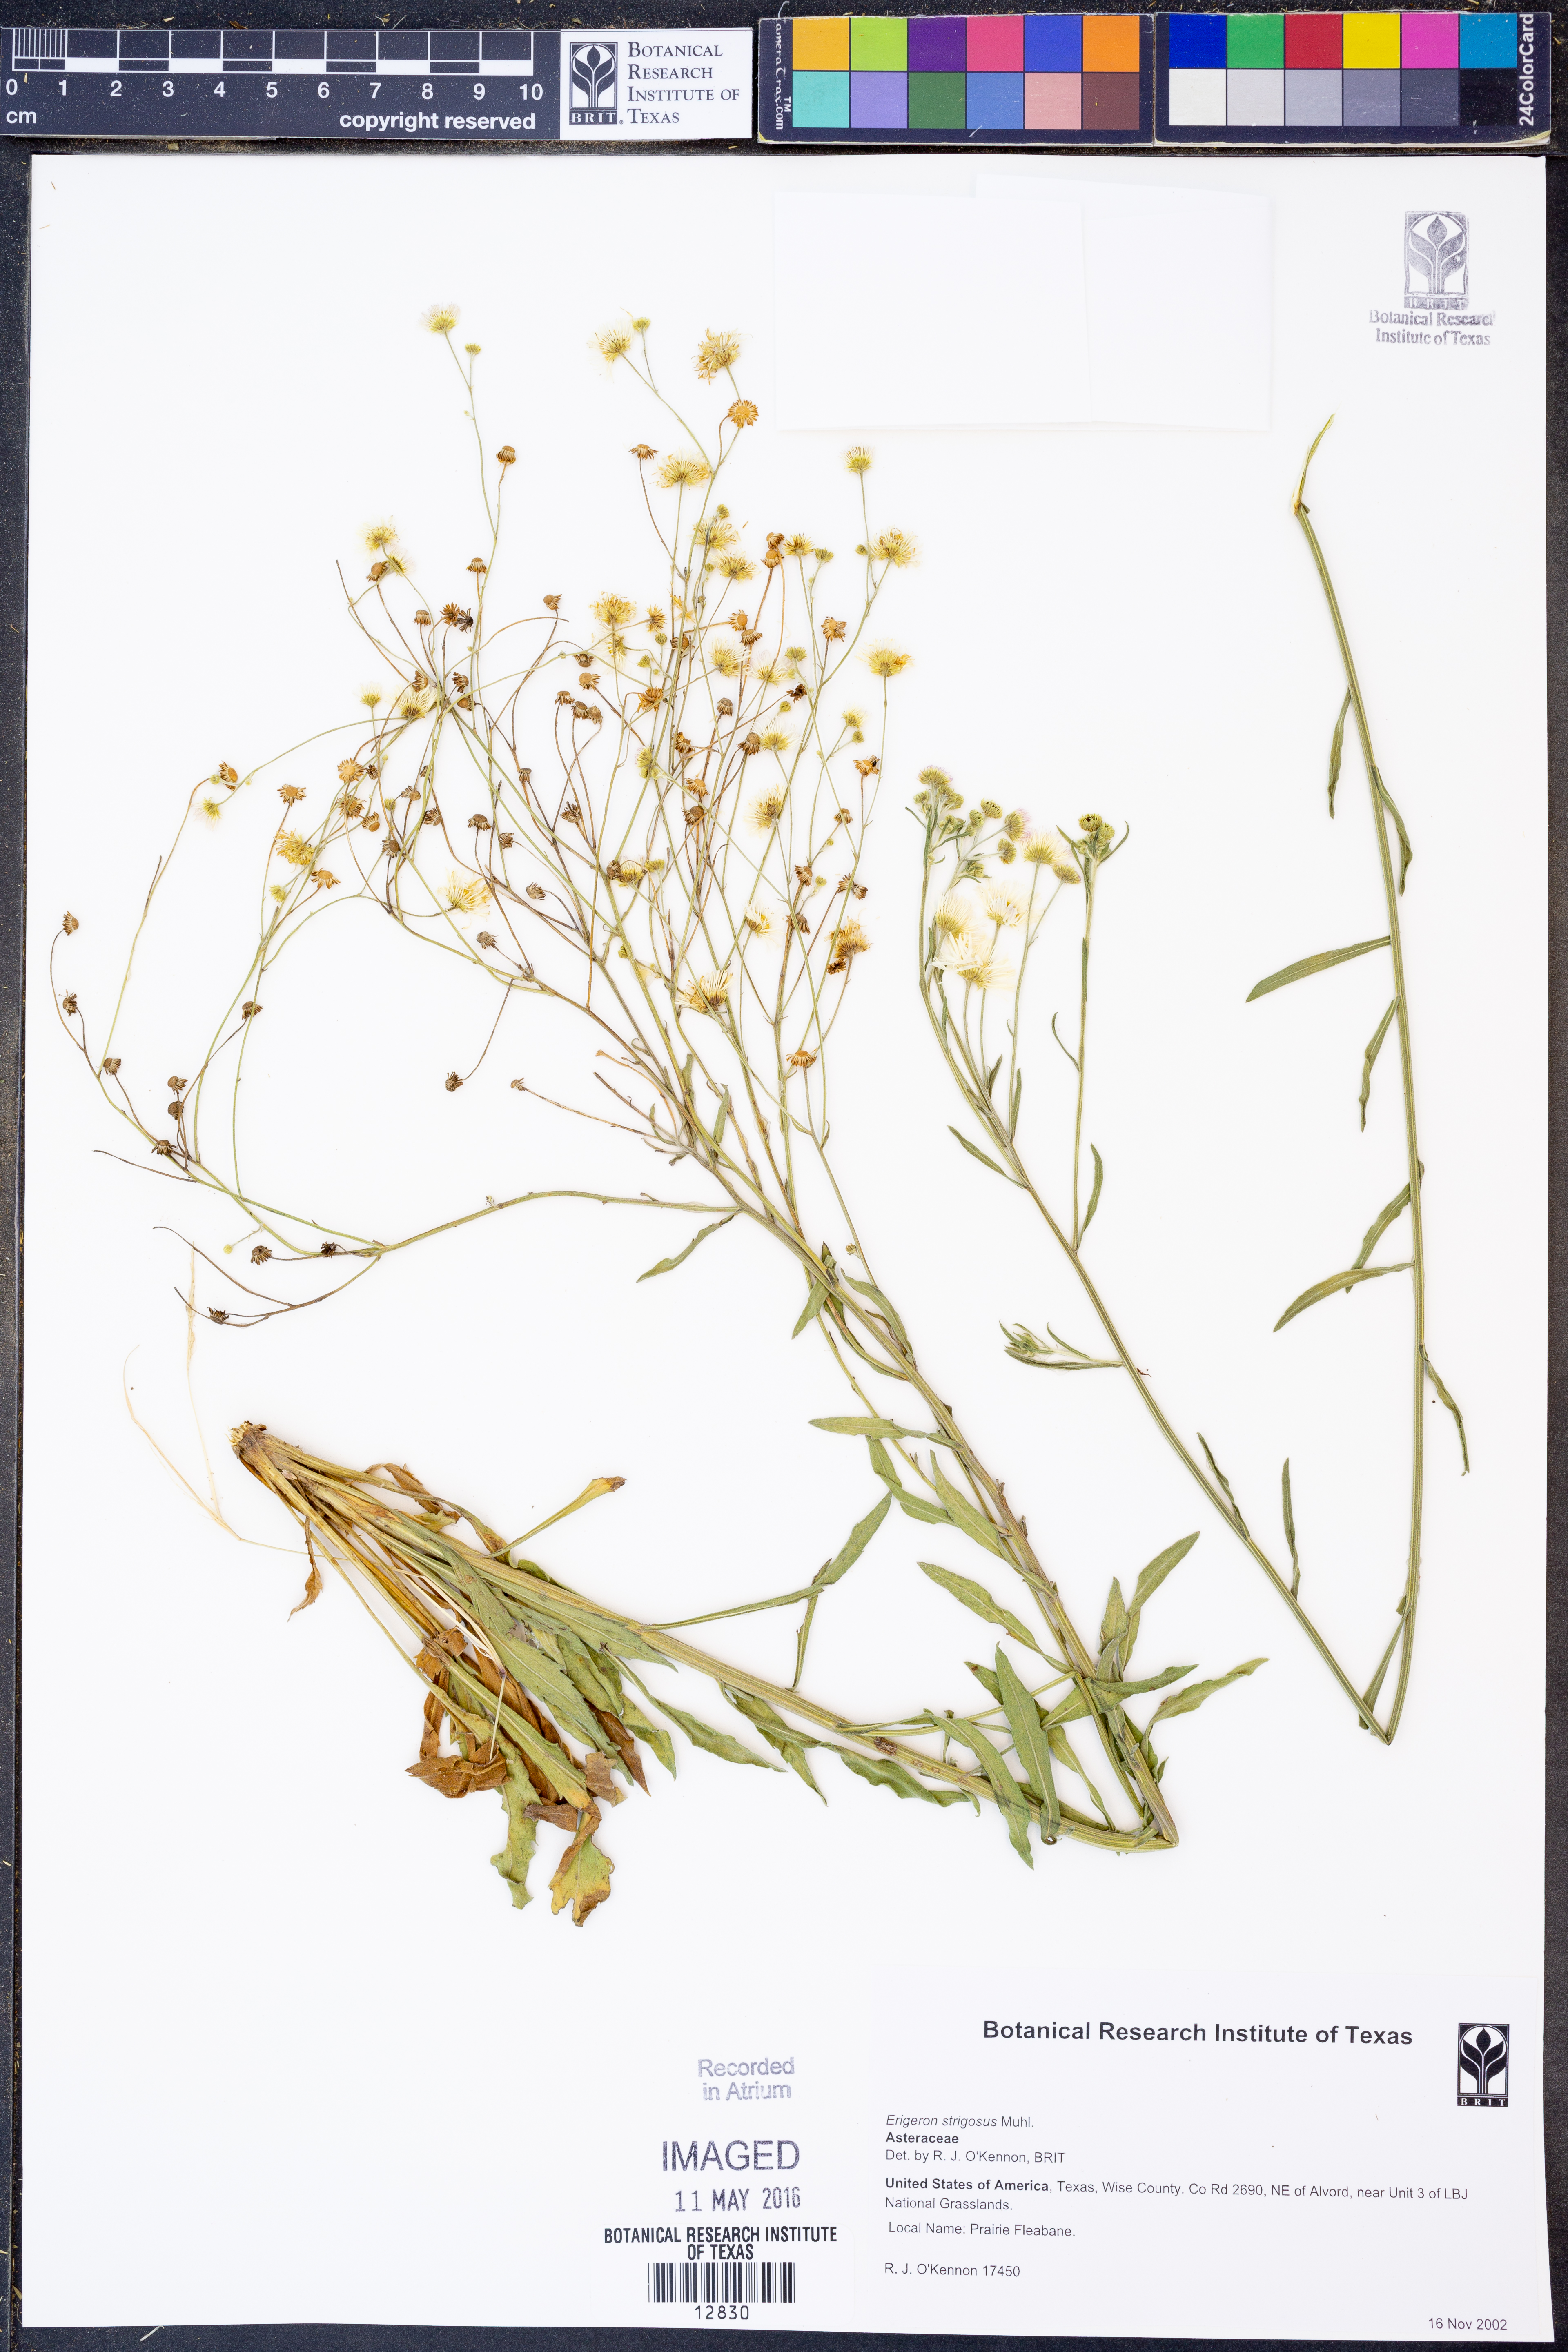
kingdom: Plantae
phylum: Tracheophyta
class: Magnoliopsida
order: Asterales
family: Asteraceae
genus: Erigeron
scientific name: Erigeron strigosus
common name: Common eastern fleabane
